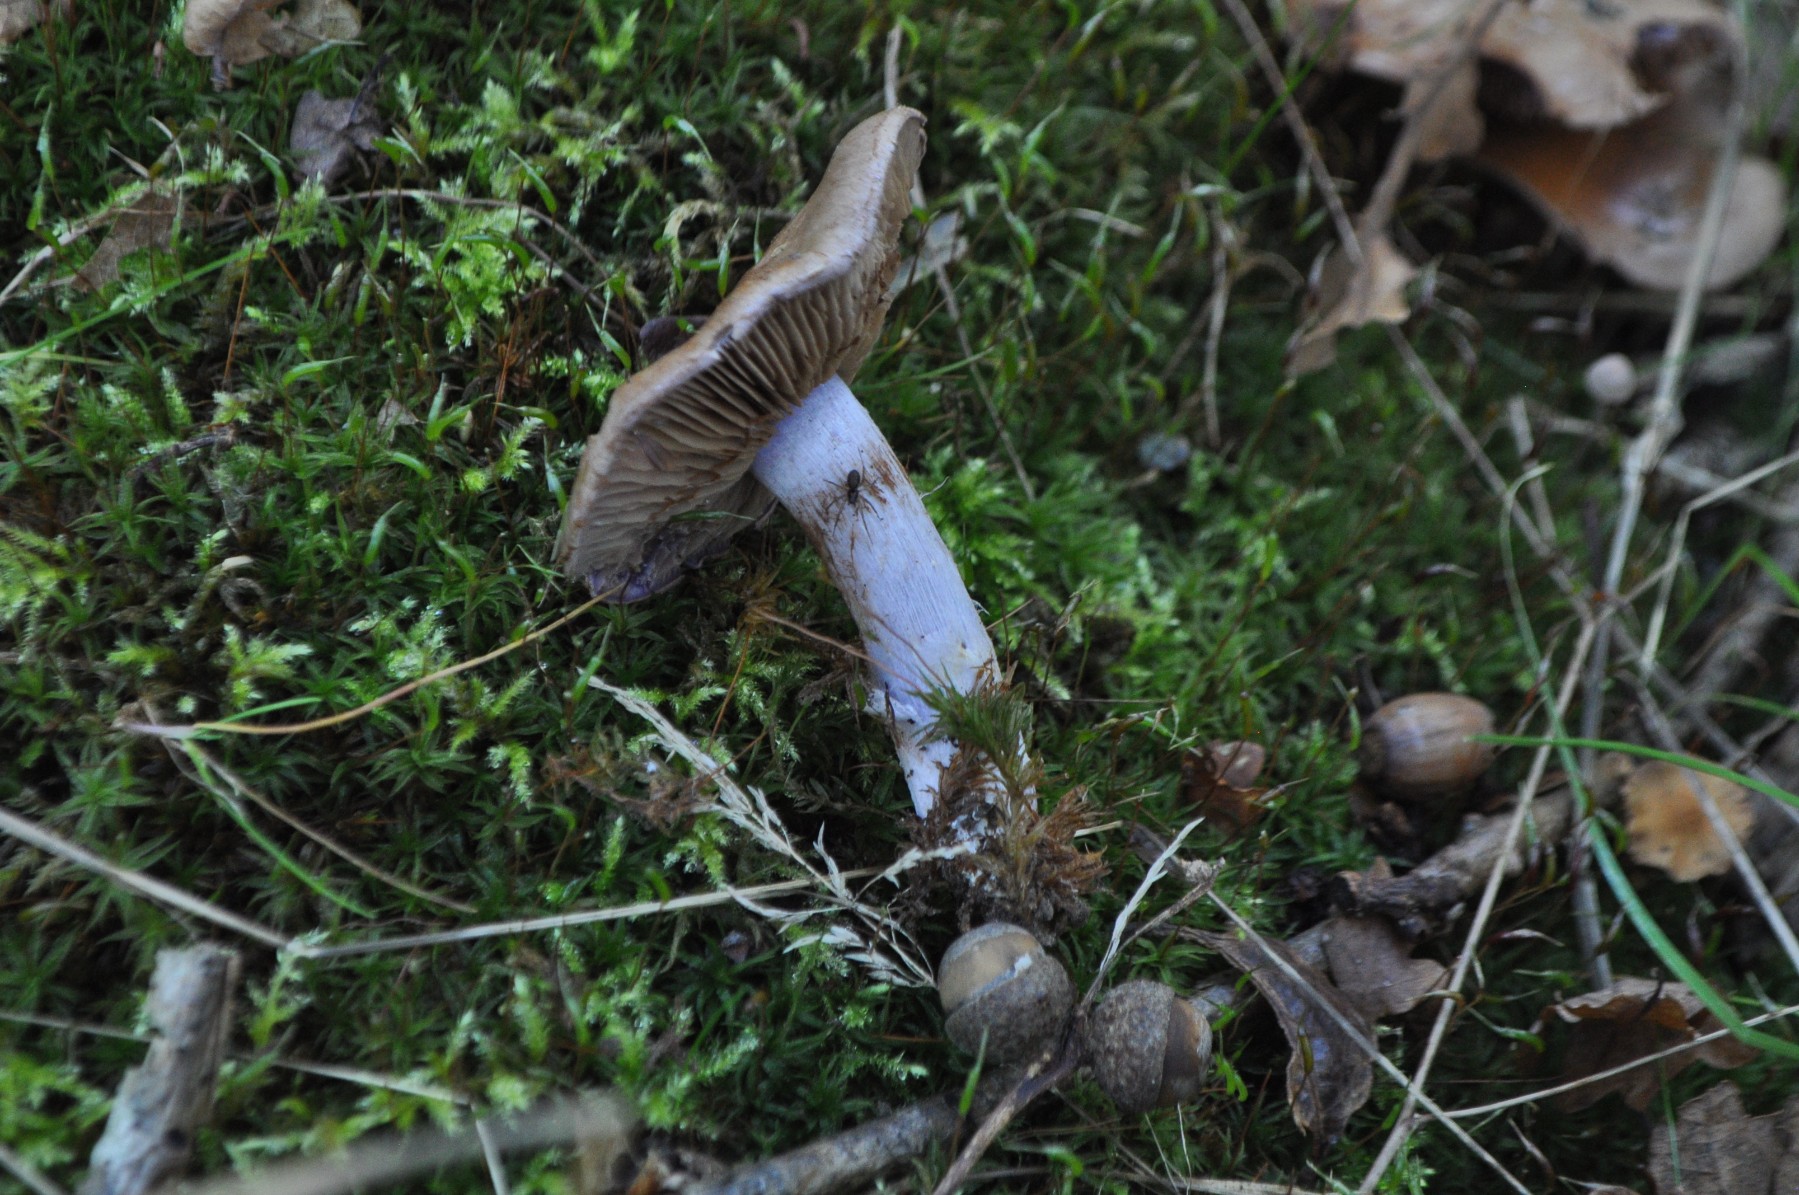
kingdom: Fungi
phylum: Basidiomycota
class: Agaricomycetes
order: Agaricales
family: Cortinariaceae
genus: Phlegmacium
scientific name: Phlegmacium
